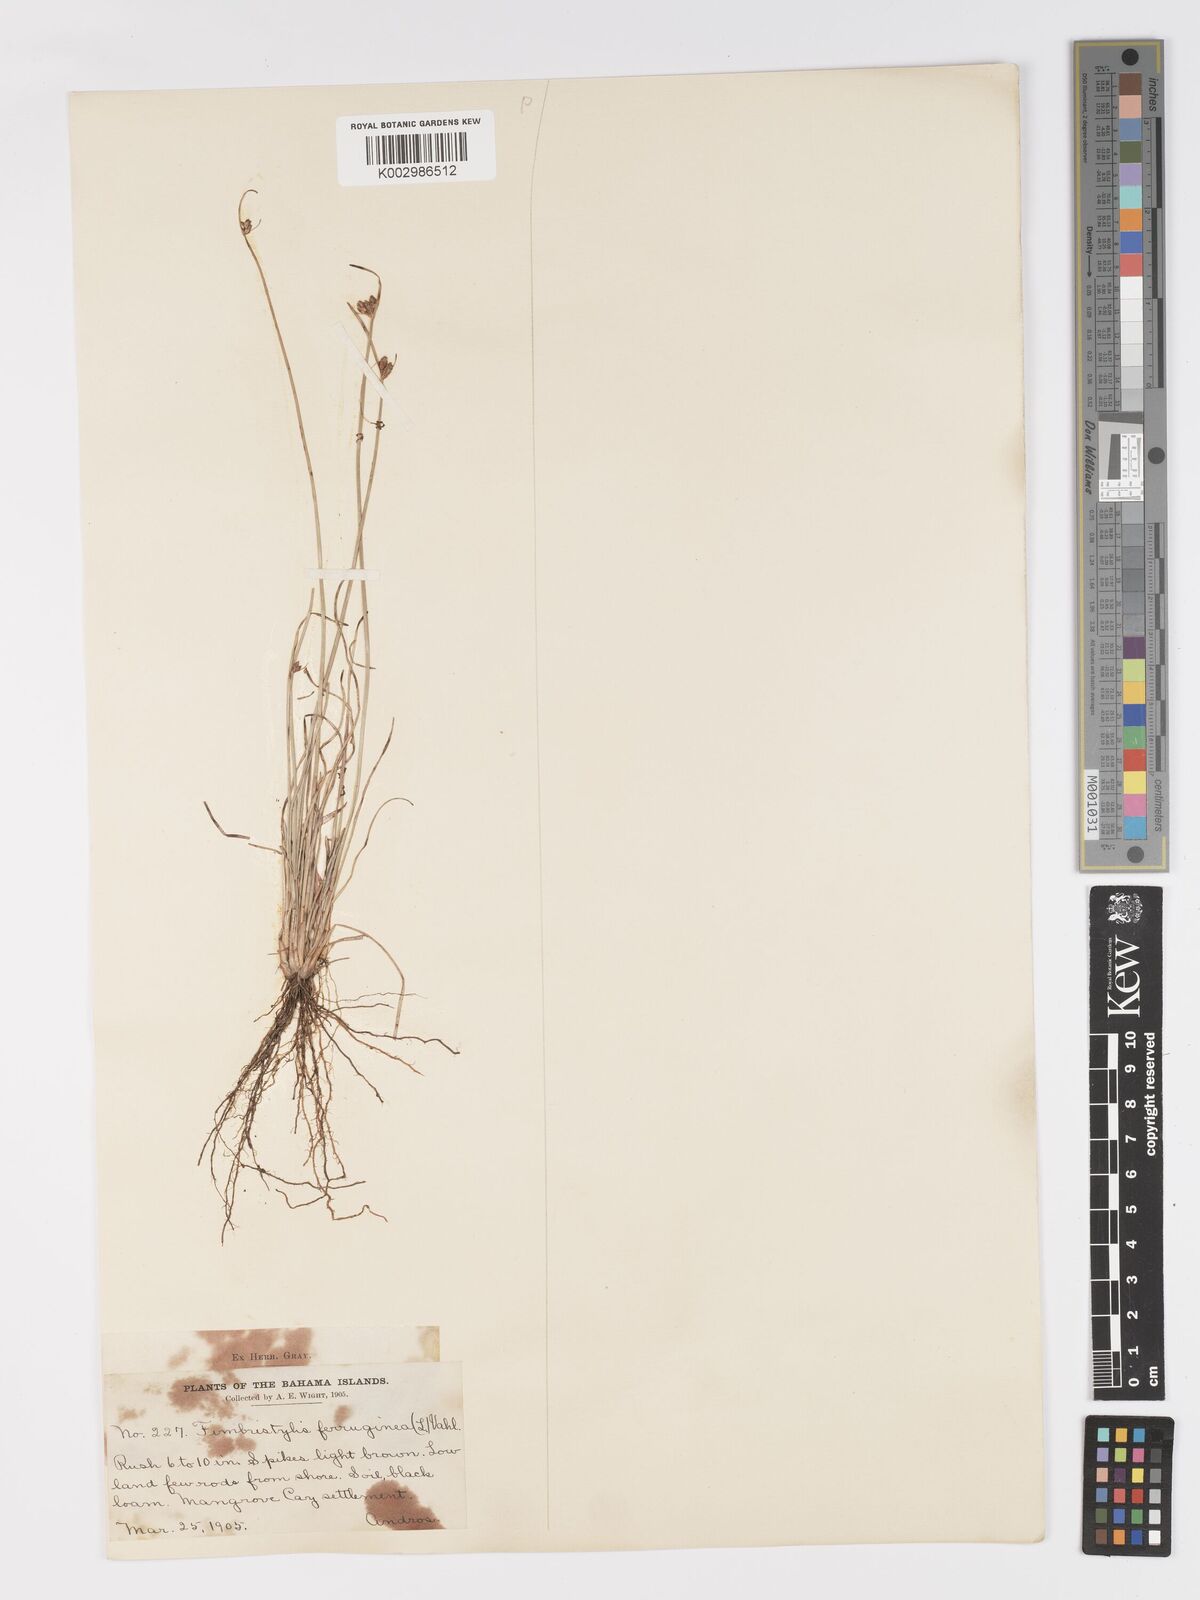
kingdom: Plantae
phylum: Tracheophyta
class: Liliopsida
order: Poales
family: Cyperaceae
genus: Fimbristylis
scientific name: Fimbristylis ferruginea
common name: West indian fimbry
